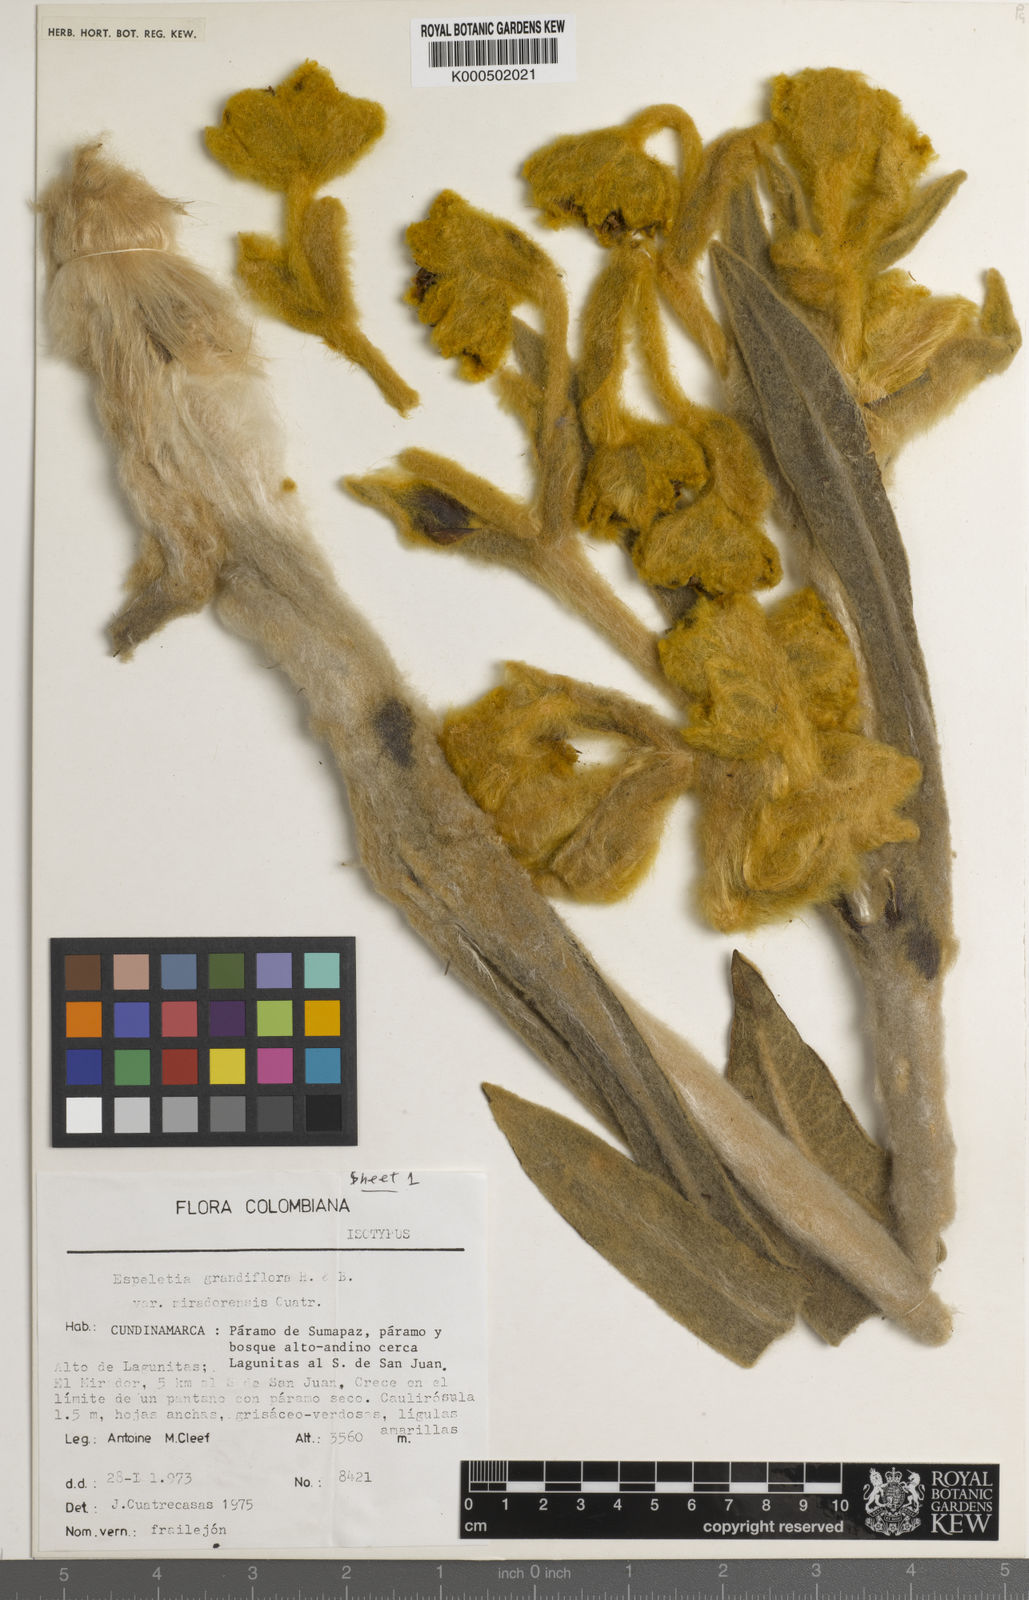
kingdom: Plantae
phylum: Tracheophyta
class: Magnoliopsida
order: Asterales
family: Asteraceae
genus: Espeletia
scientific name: Espeletia miradorensis
